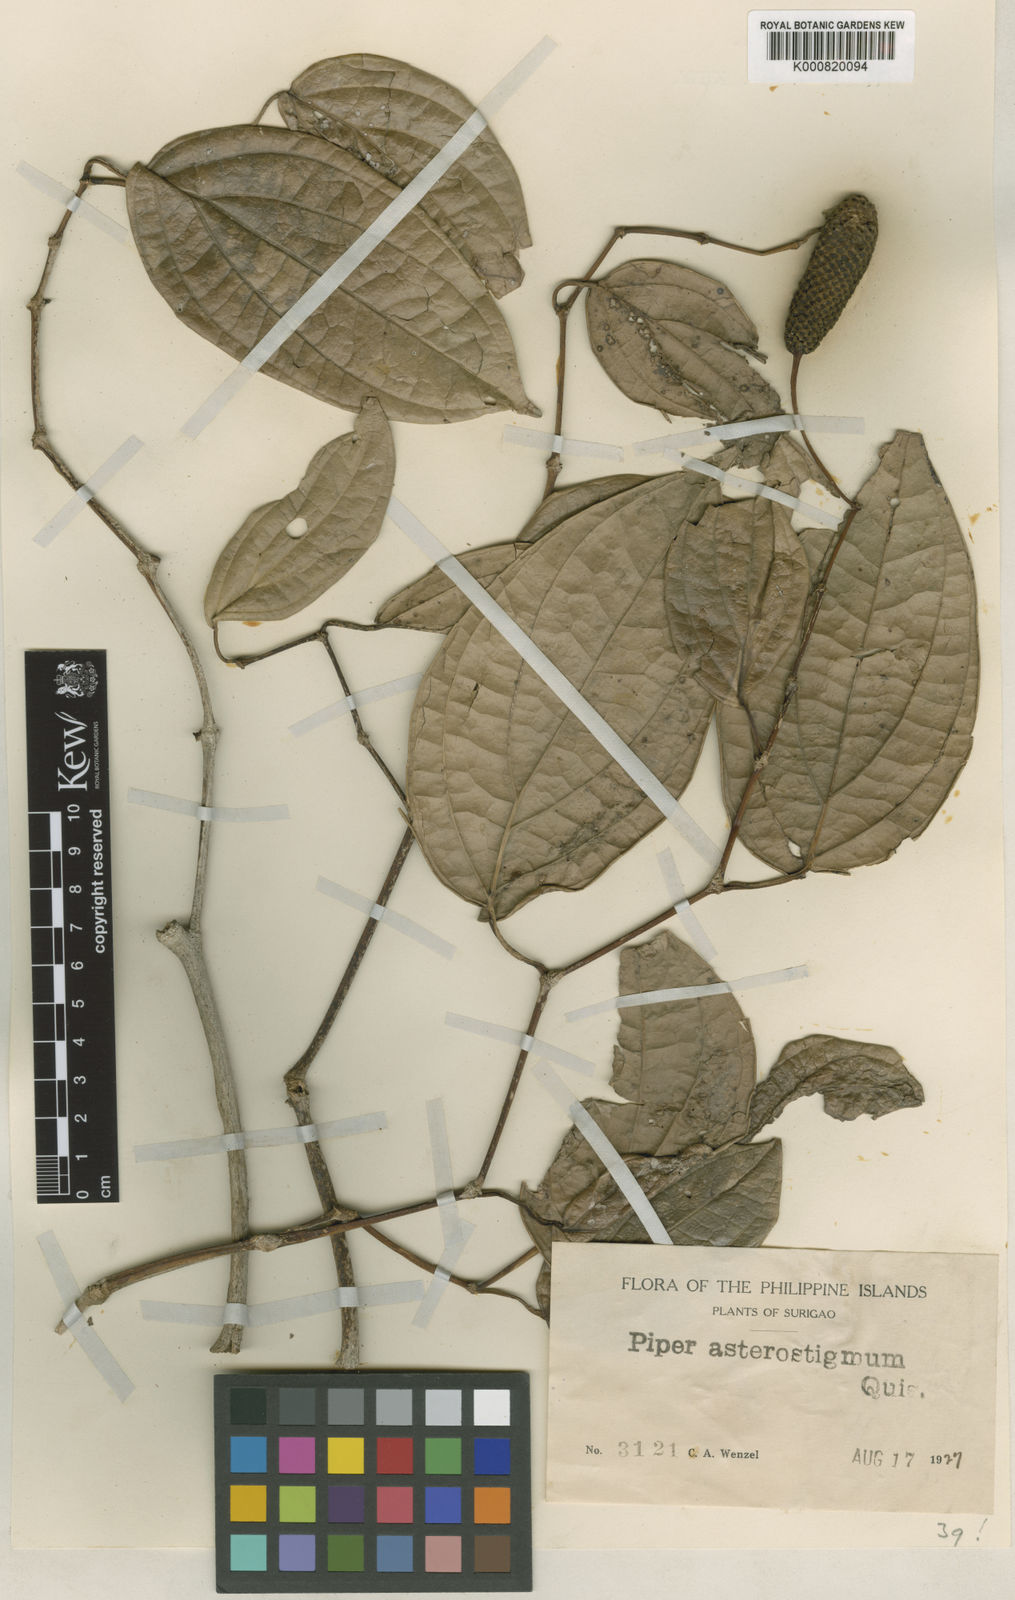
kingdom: Plantae
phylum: Tracheophyta
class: Magnoliopsida
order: Piperales
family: Piperaceae
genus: Piper
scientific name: Piper asterostigmum
